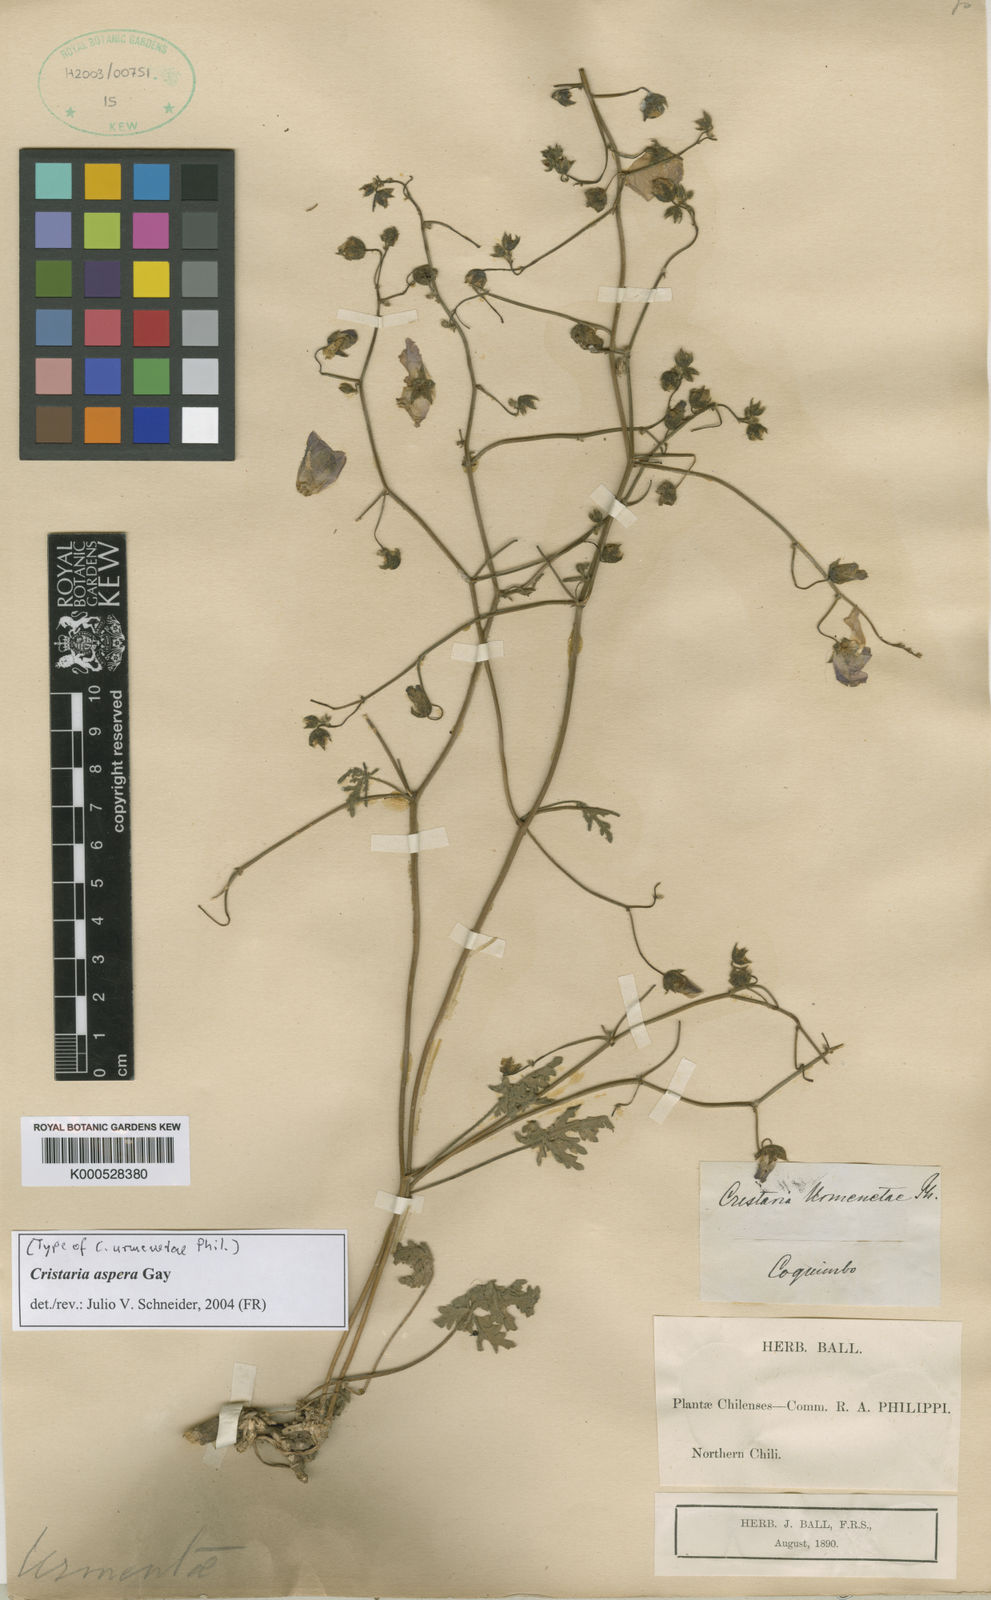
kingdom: Plantae
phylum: Tracheophyta
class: Magnoliopsida
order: Malvales
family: Malvaceae
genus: Cristaria
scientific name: Cristaria aspera
